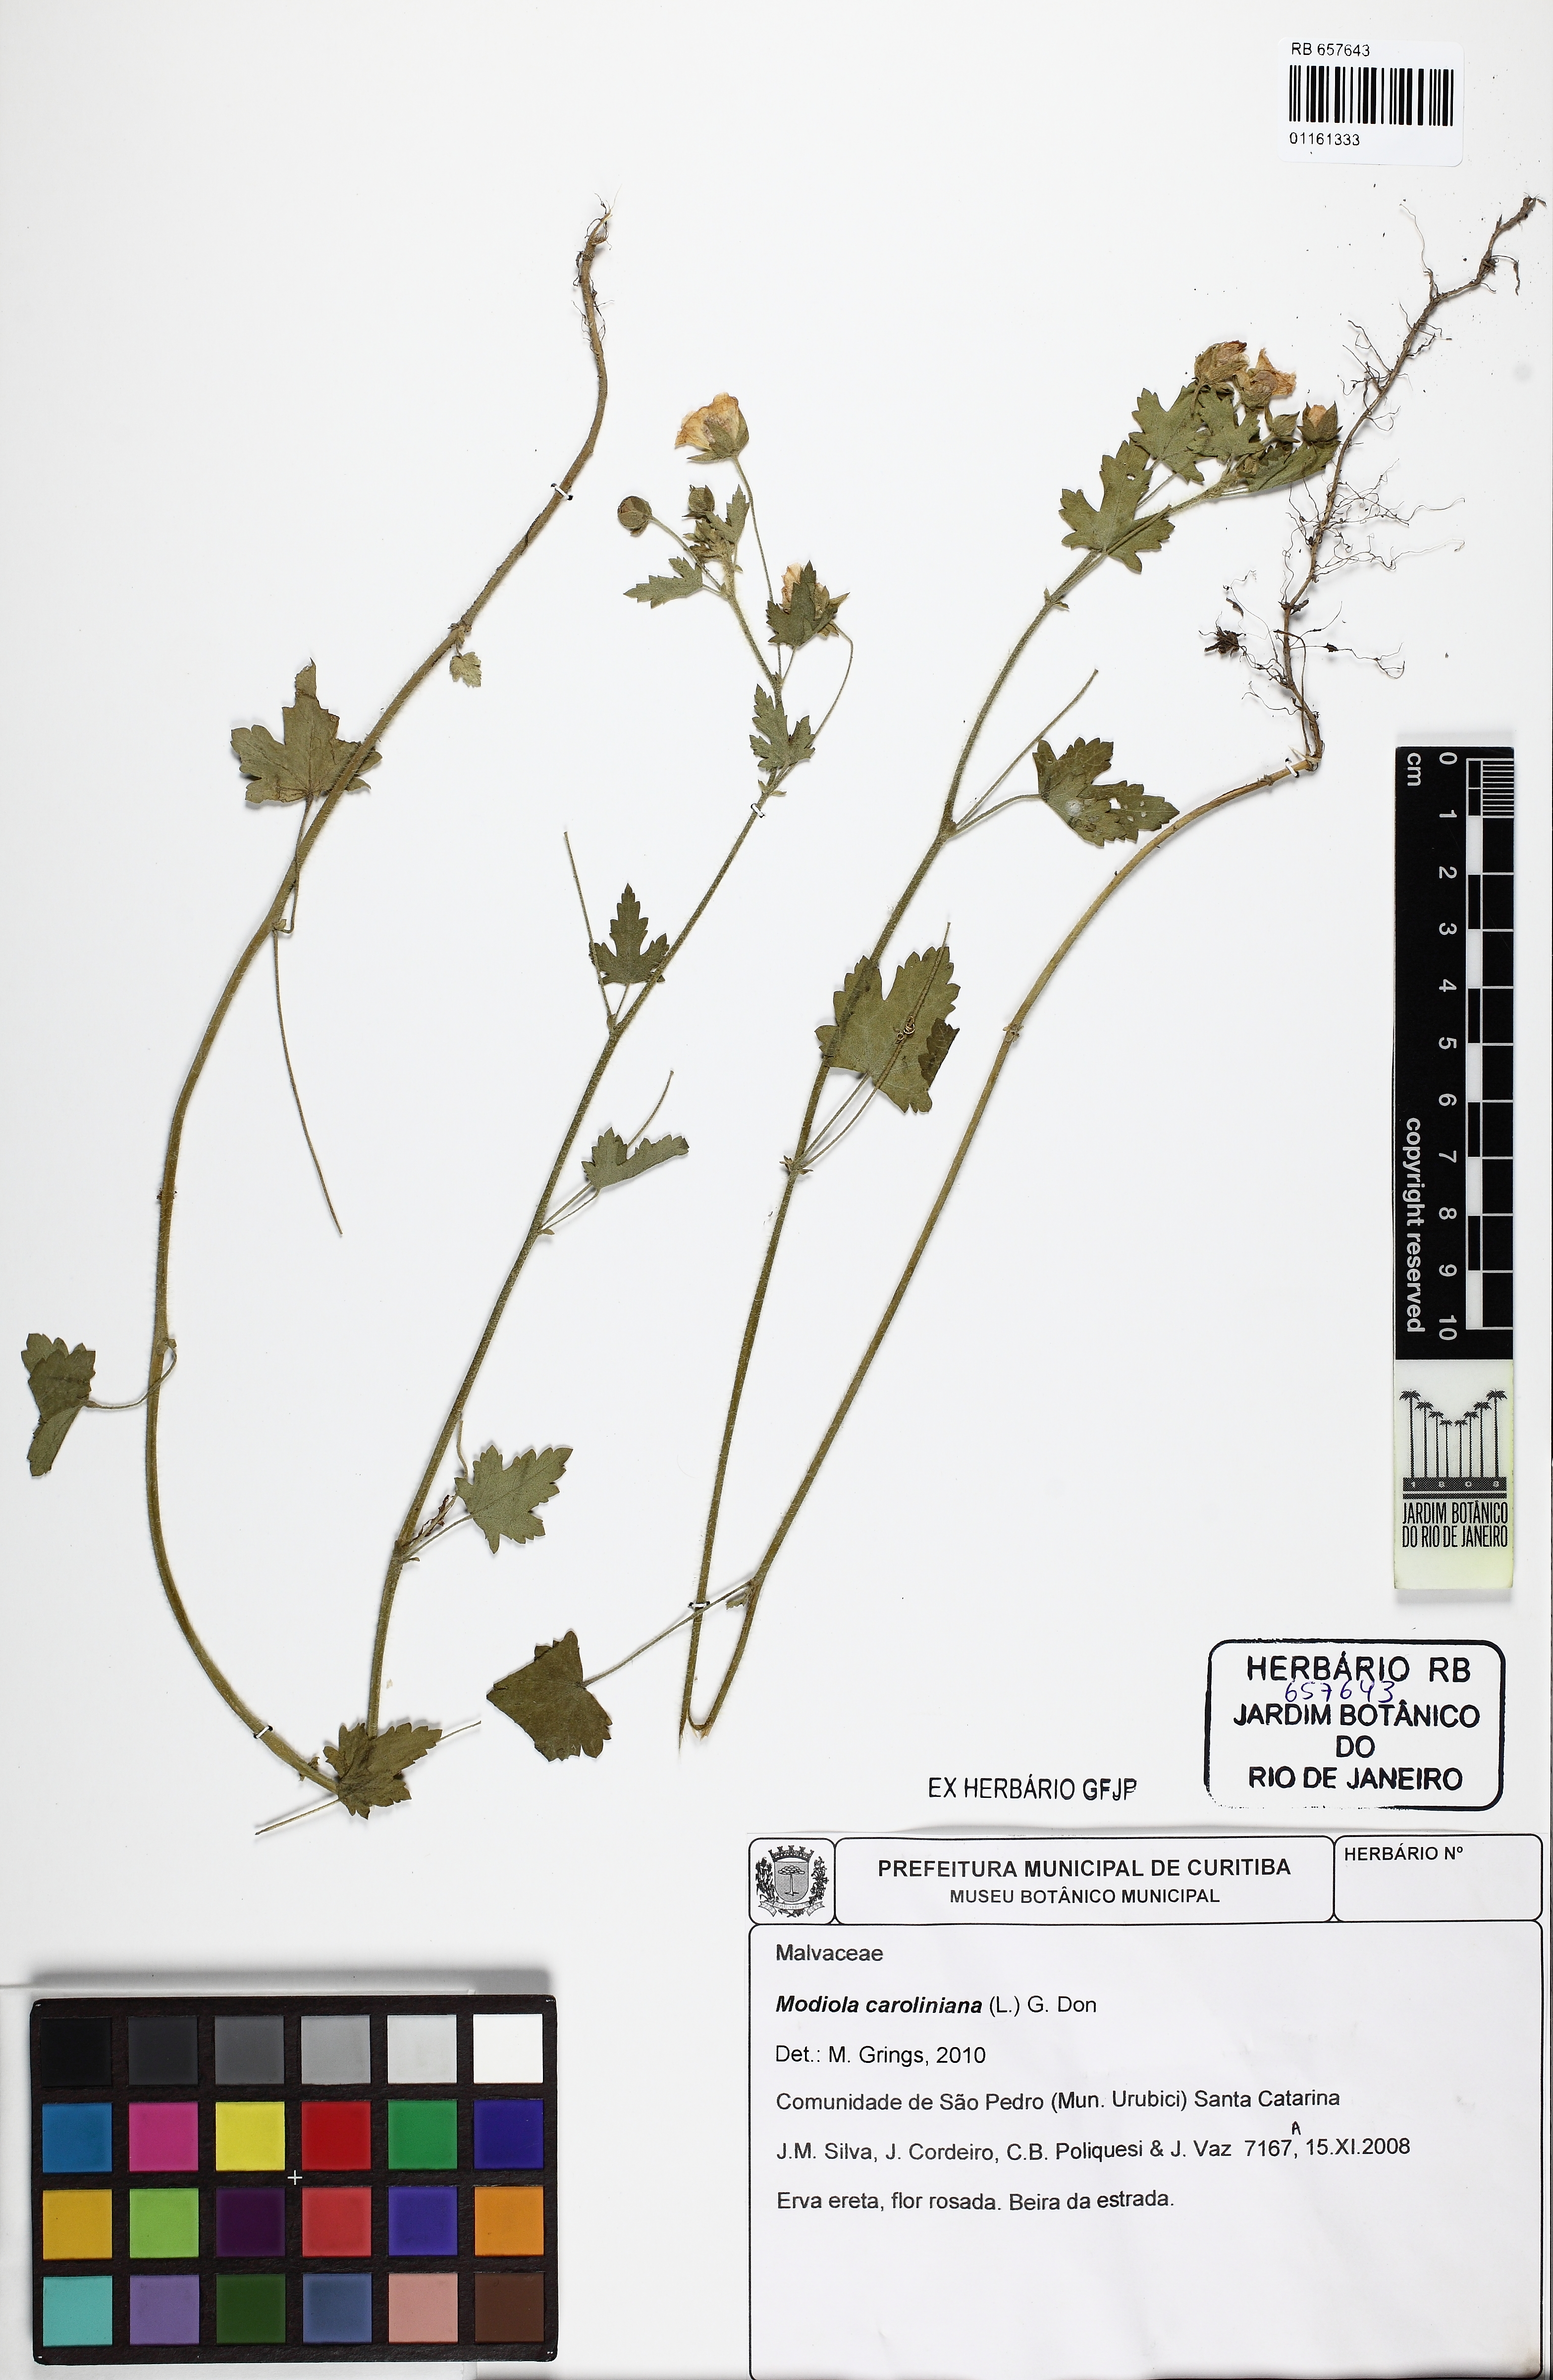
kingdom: Plantae
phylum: Tracheophyta
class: Magnoliopsida
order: Malvales
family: Malvaceae
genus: Modiola
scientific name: Modiola caroliniana
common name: Carolina bristlemallow
